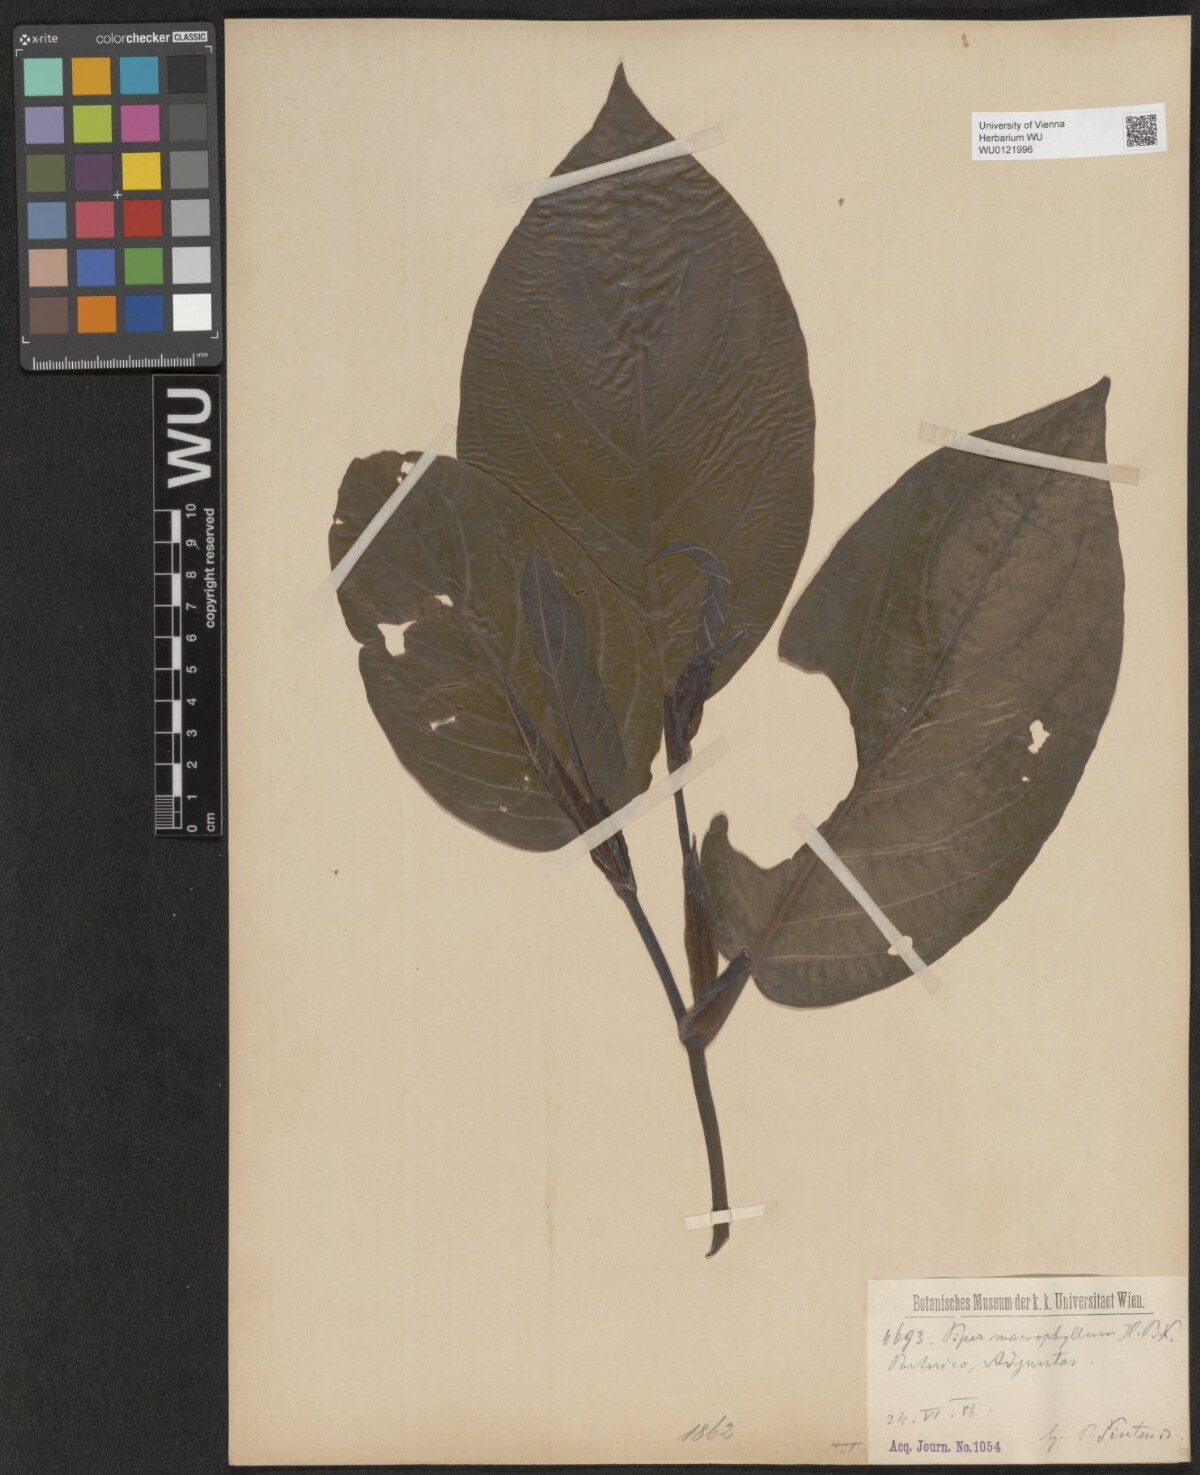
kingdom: Plantae
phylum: Tracheophyta
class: Magnoliopsida
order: Piperales
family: Piperaceae
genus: Piper
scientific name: Piper malacophyllum
